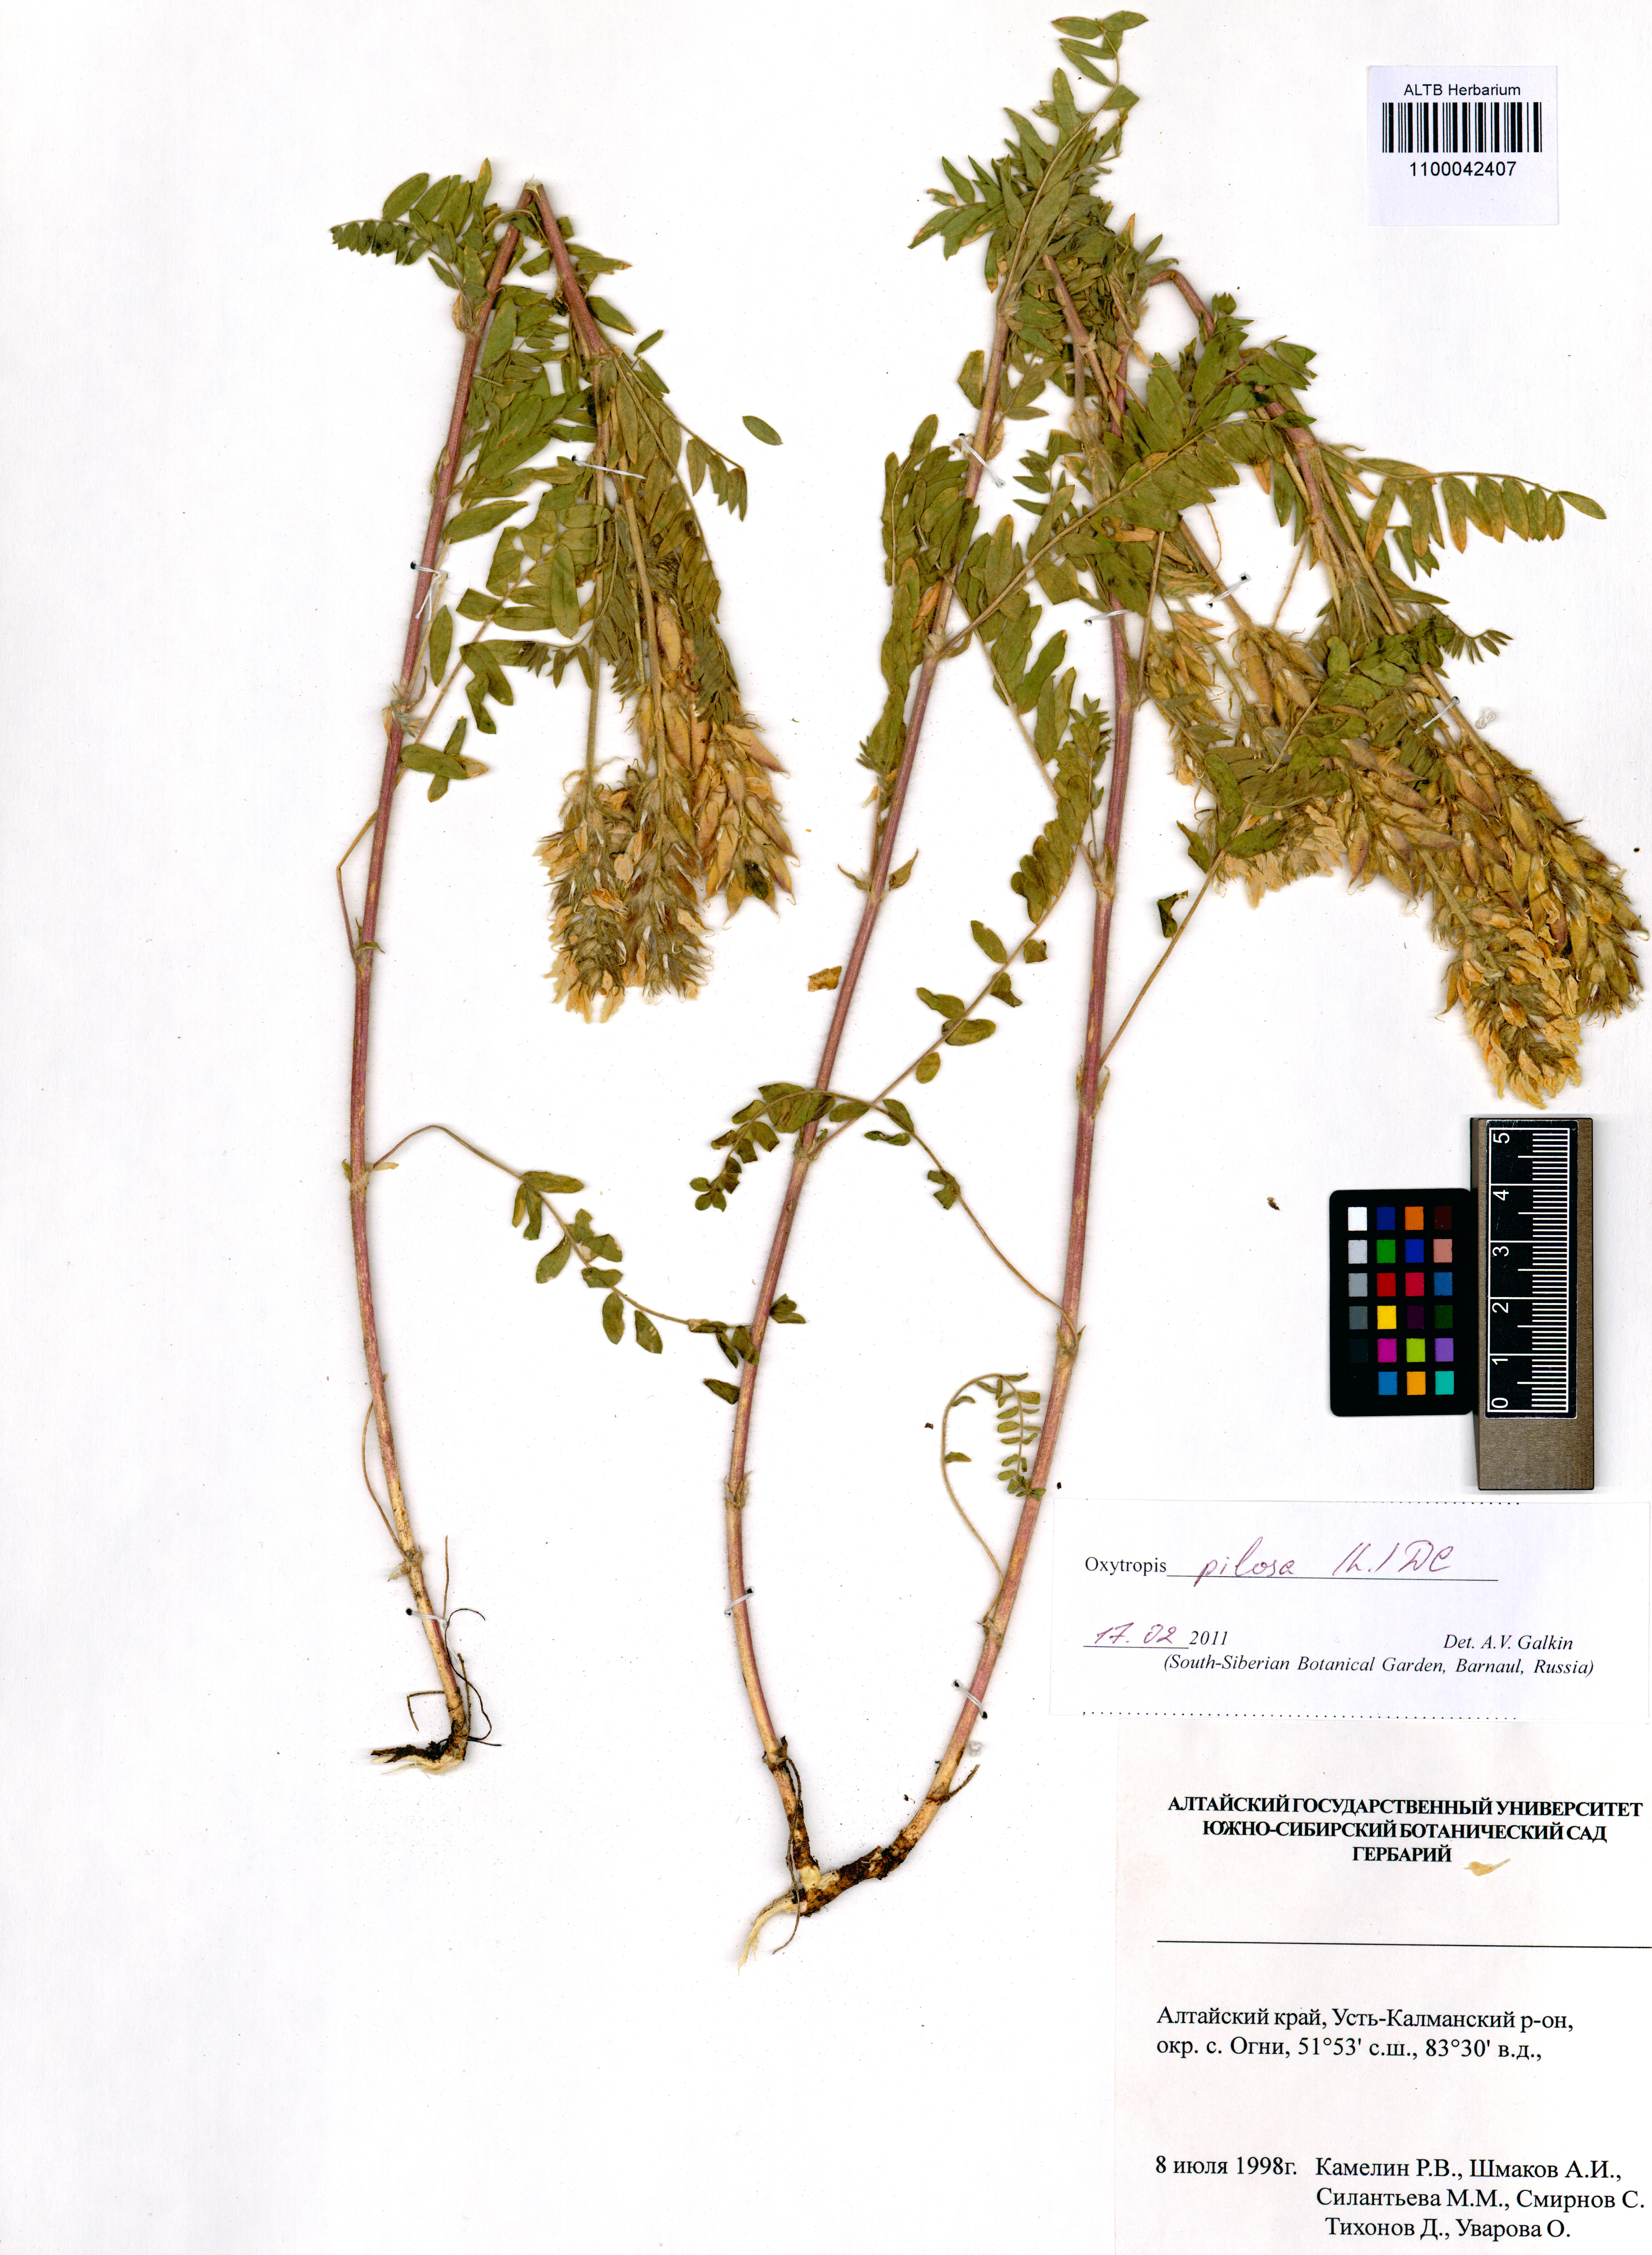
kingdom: Plantae
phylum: Tracheophyta
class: Magnoliopsida
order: Fabales
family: Fabaceae
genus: Oxytropis
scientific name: Oxytropis pilosa
